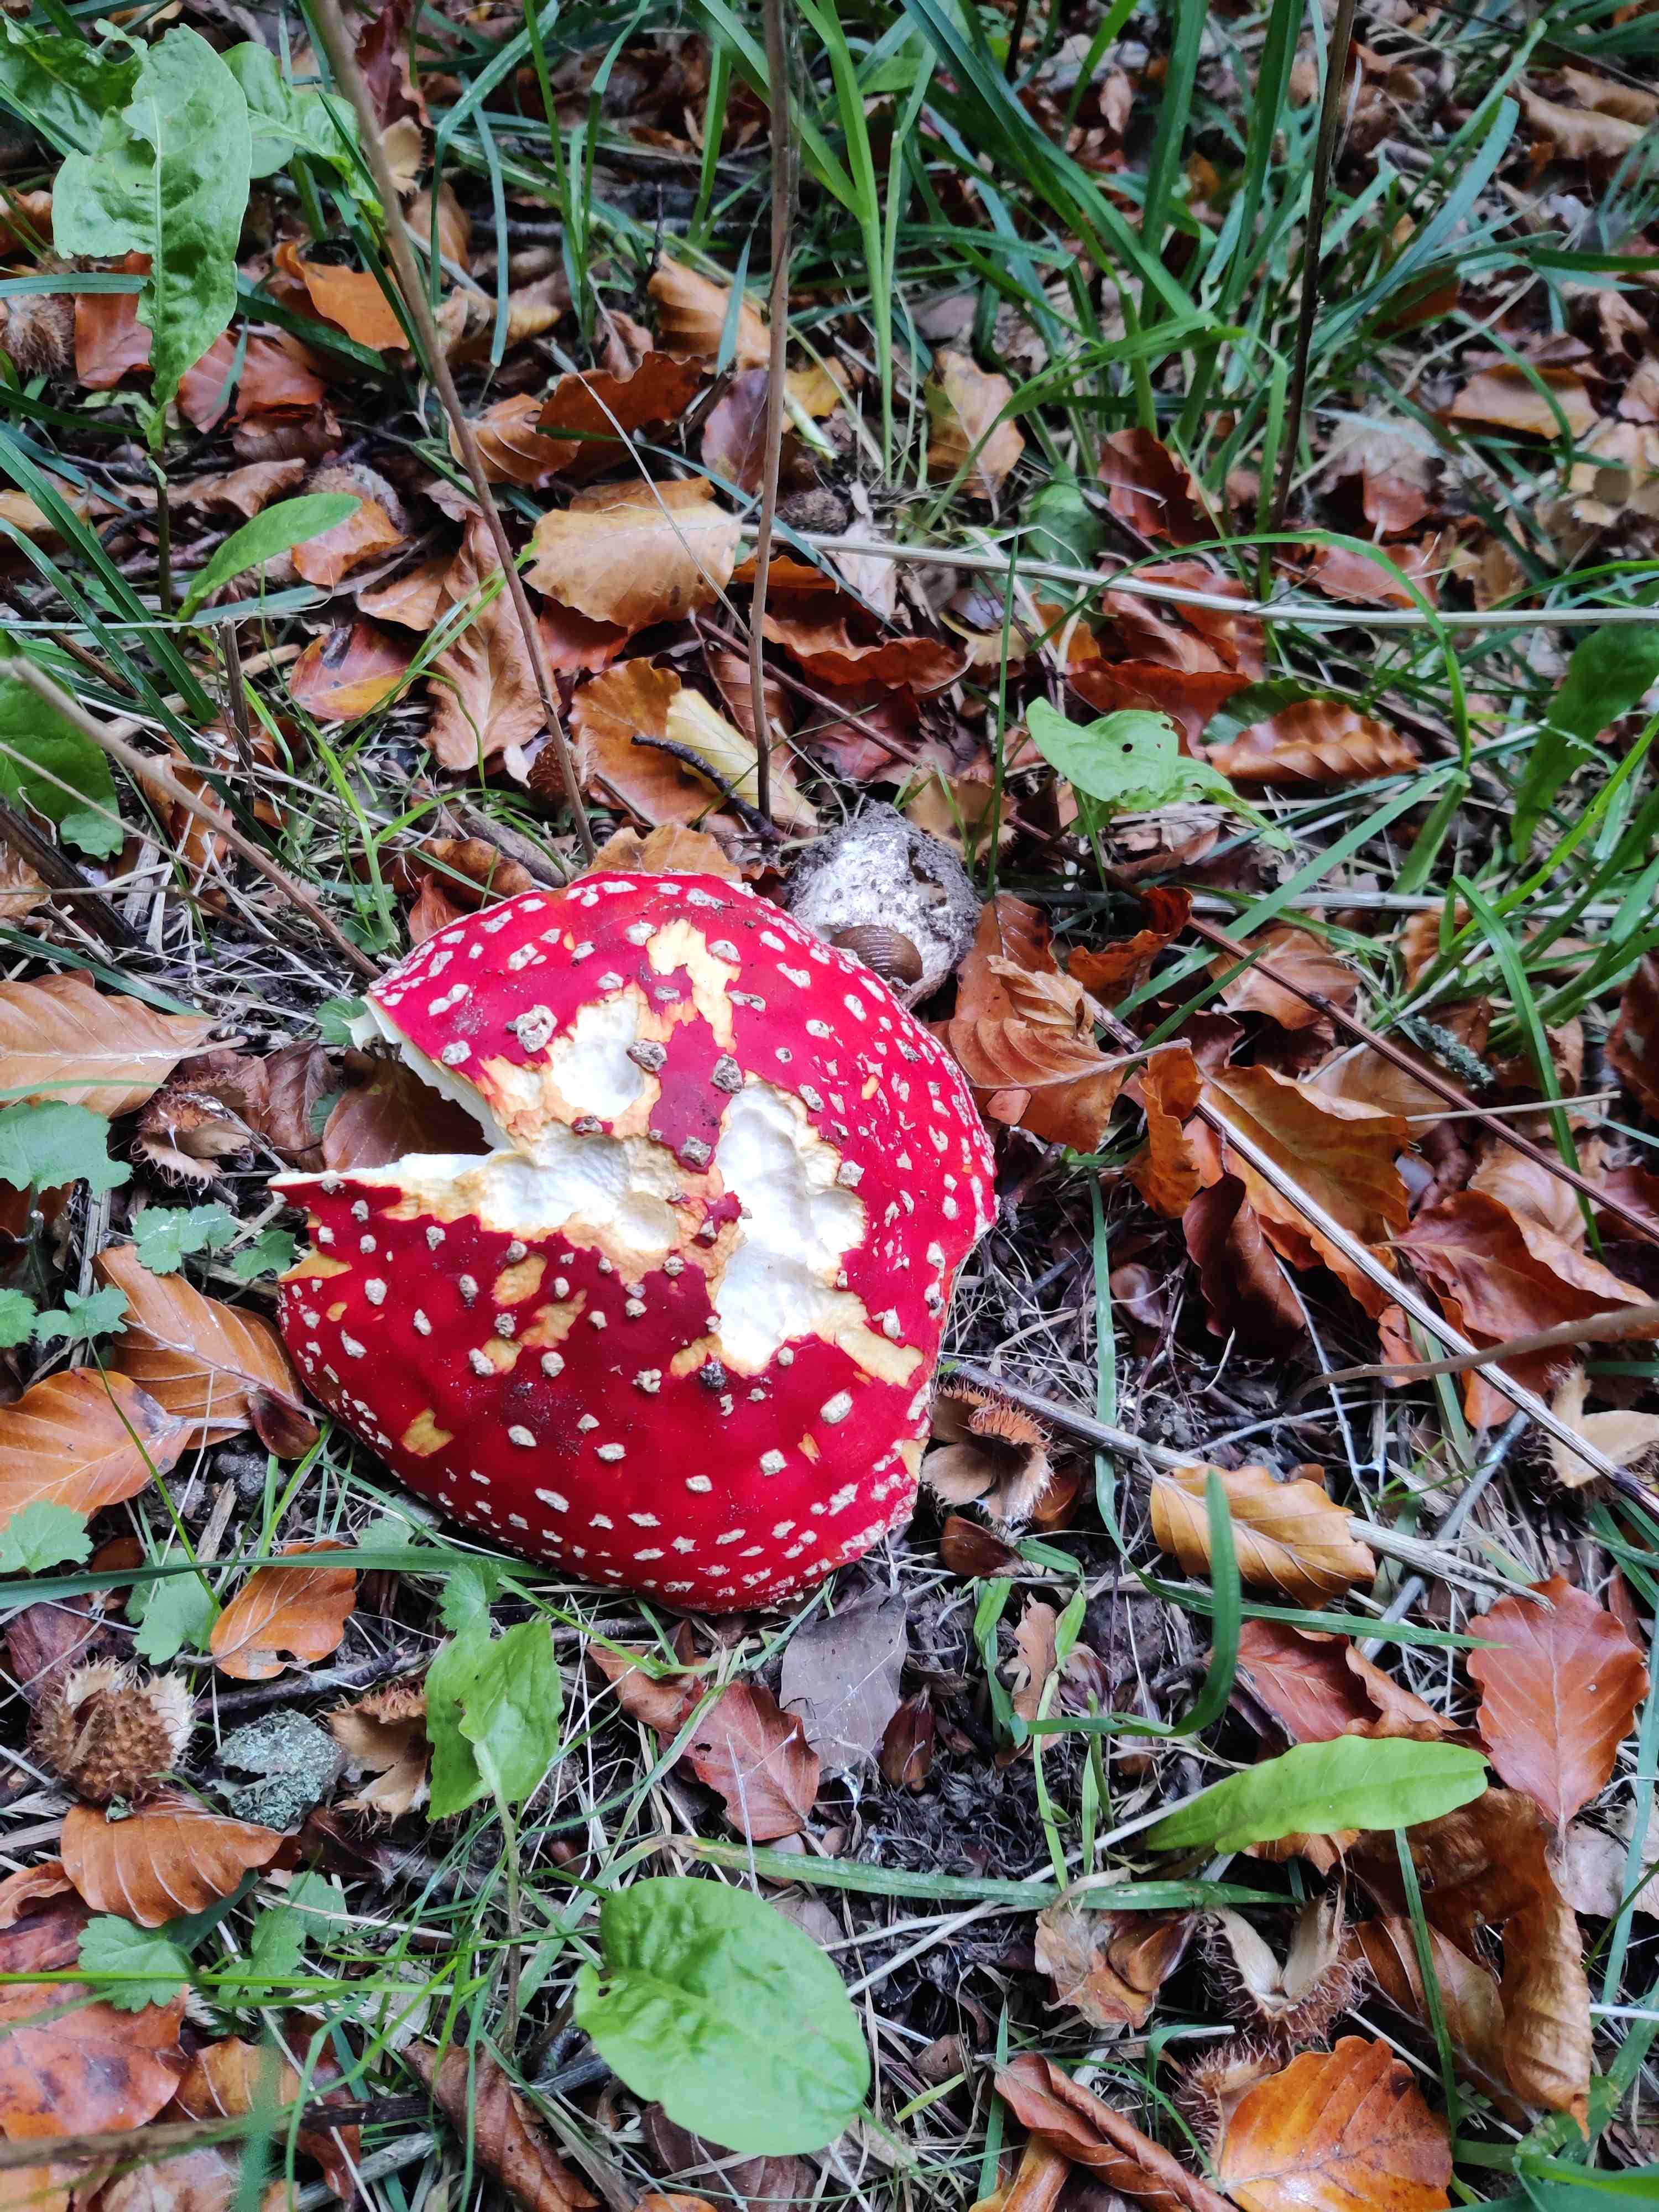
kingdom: Fungi
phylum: Basidiomycota
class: Agaricomycetes
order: Agaricales
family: Amanitaceae
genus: Amanita
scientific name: Amanita muscaria
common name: rød fluesvamp
